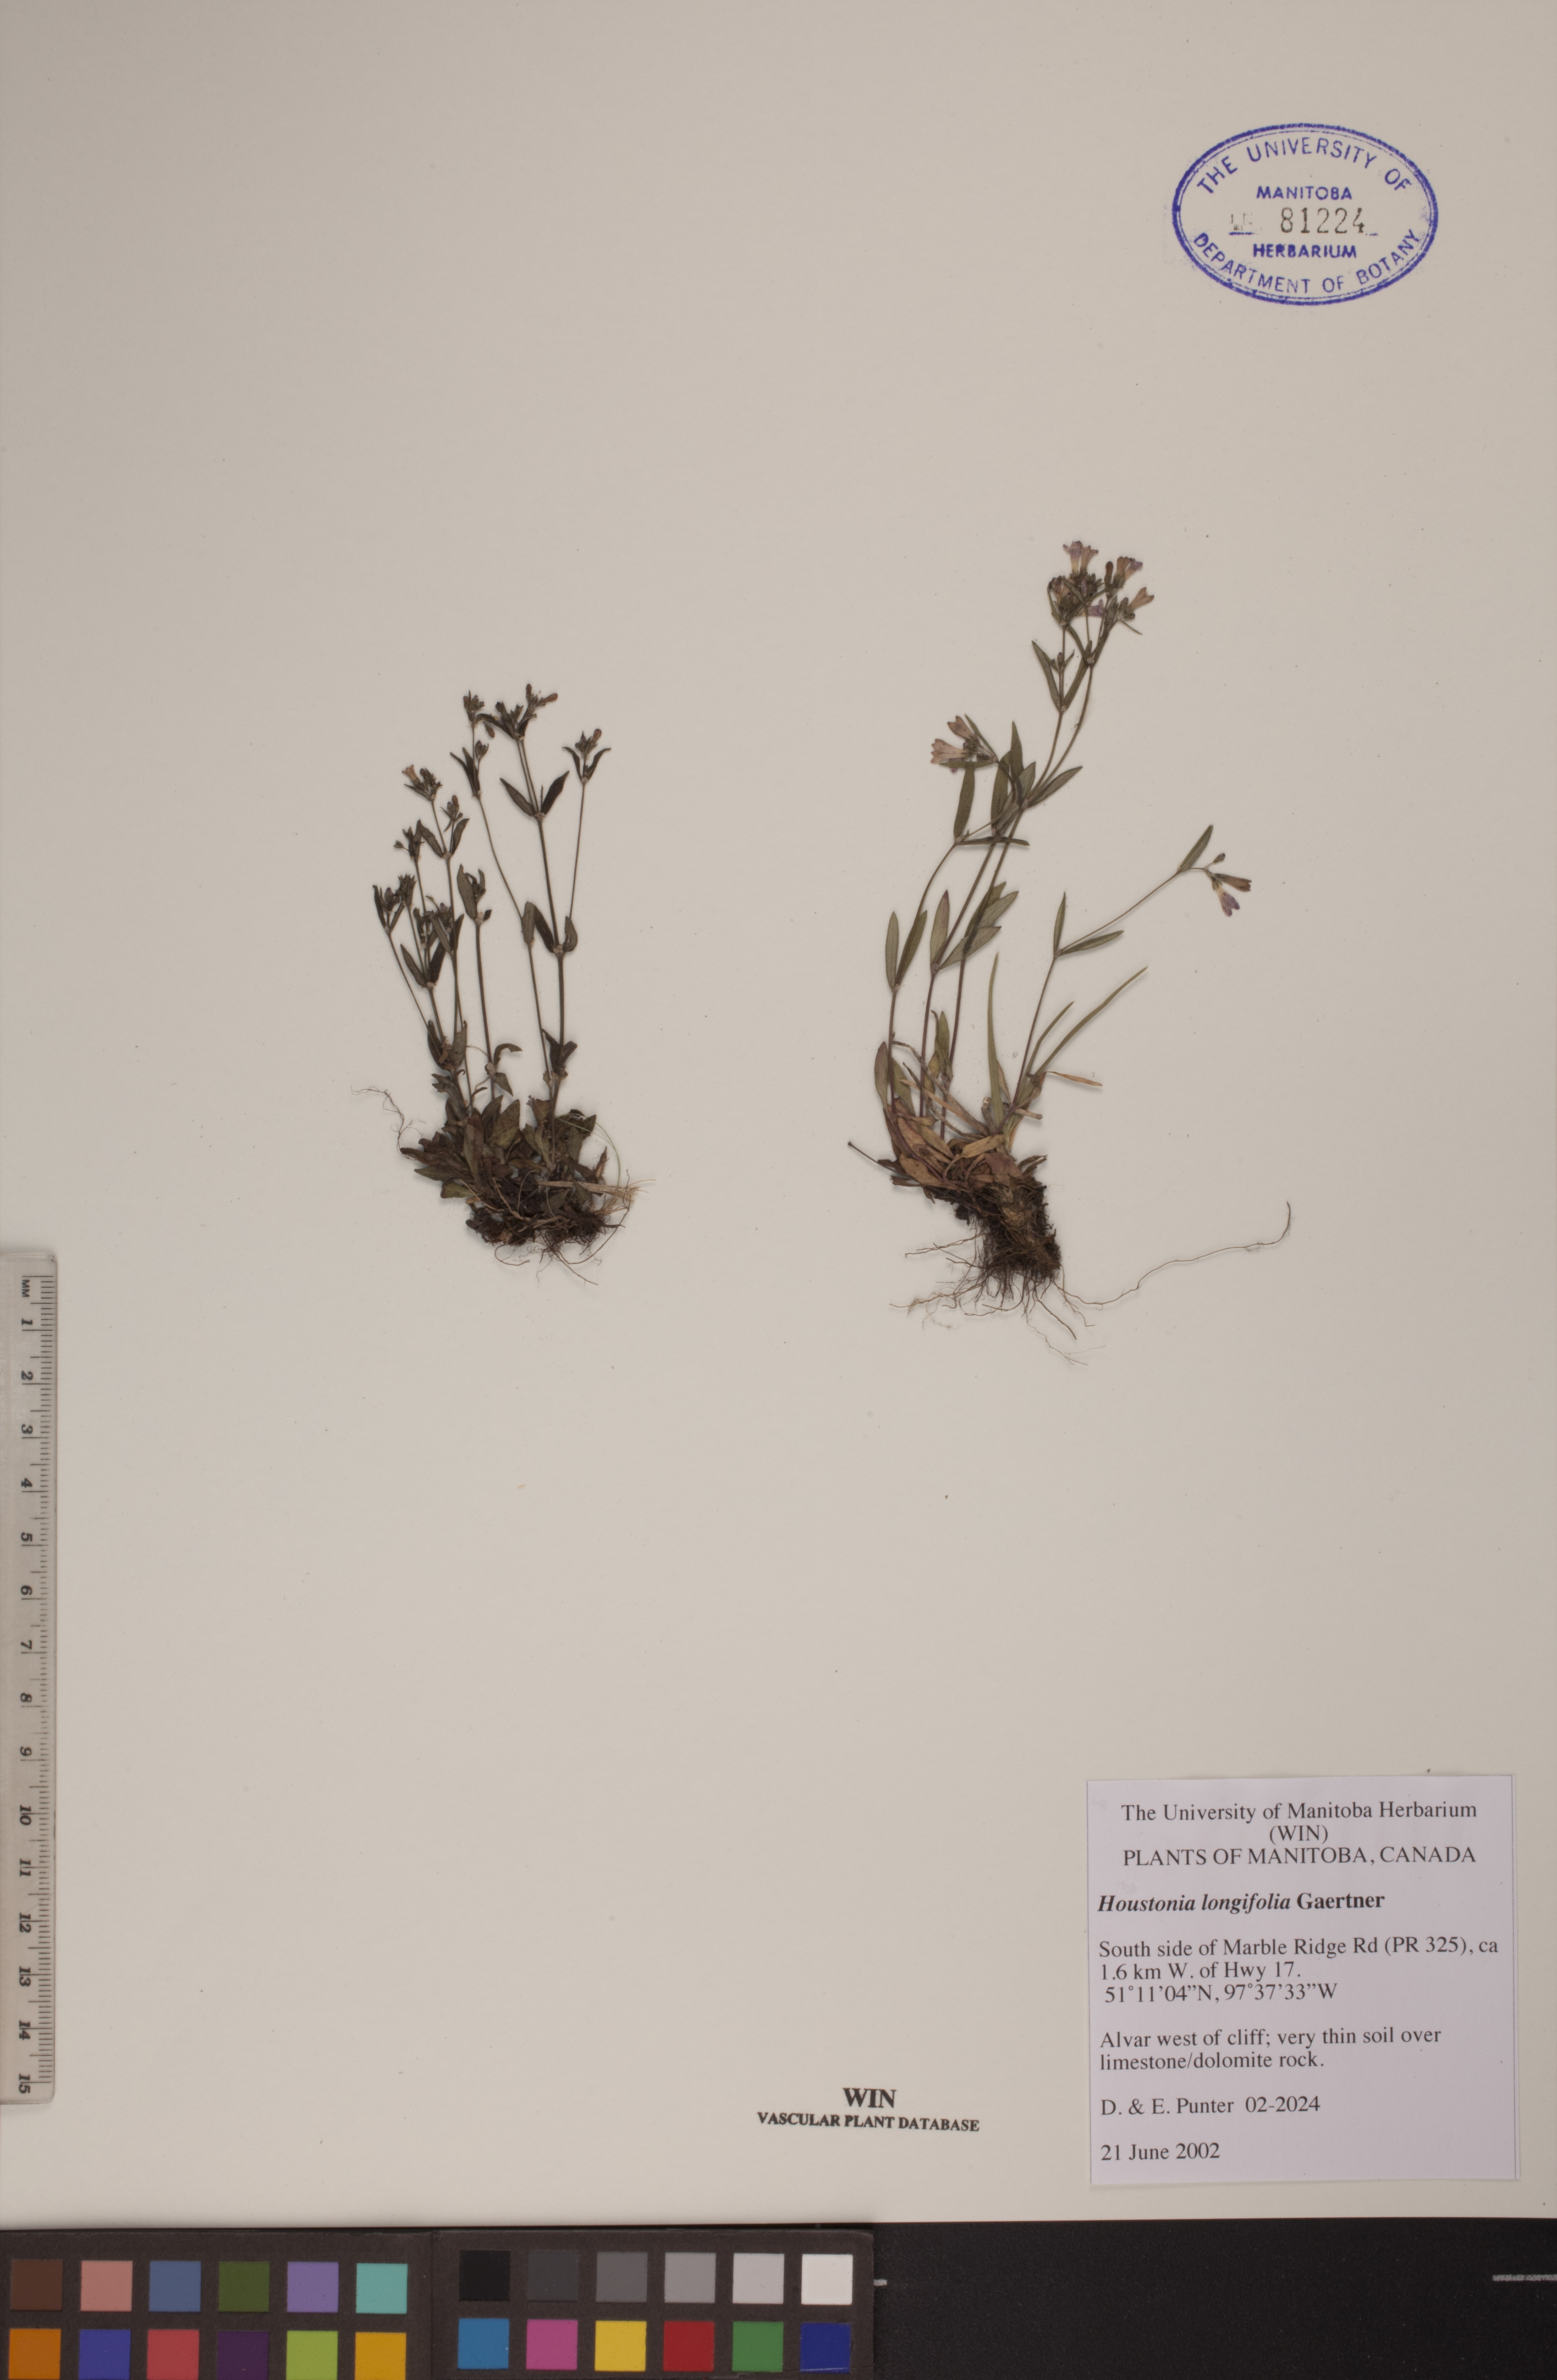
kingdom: Plantae
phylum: Tracheophyta
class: Magnoliopsida
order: Gentianales
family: Rubiaceae
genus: Houstonia
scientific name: Houstonia longifolia
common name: Long-leaved bluets
